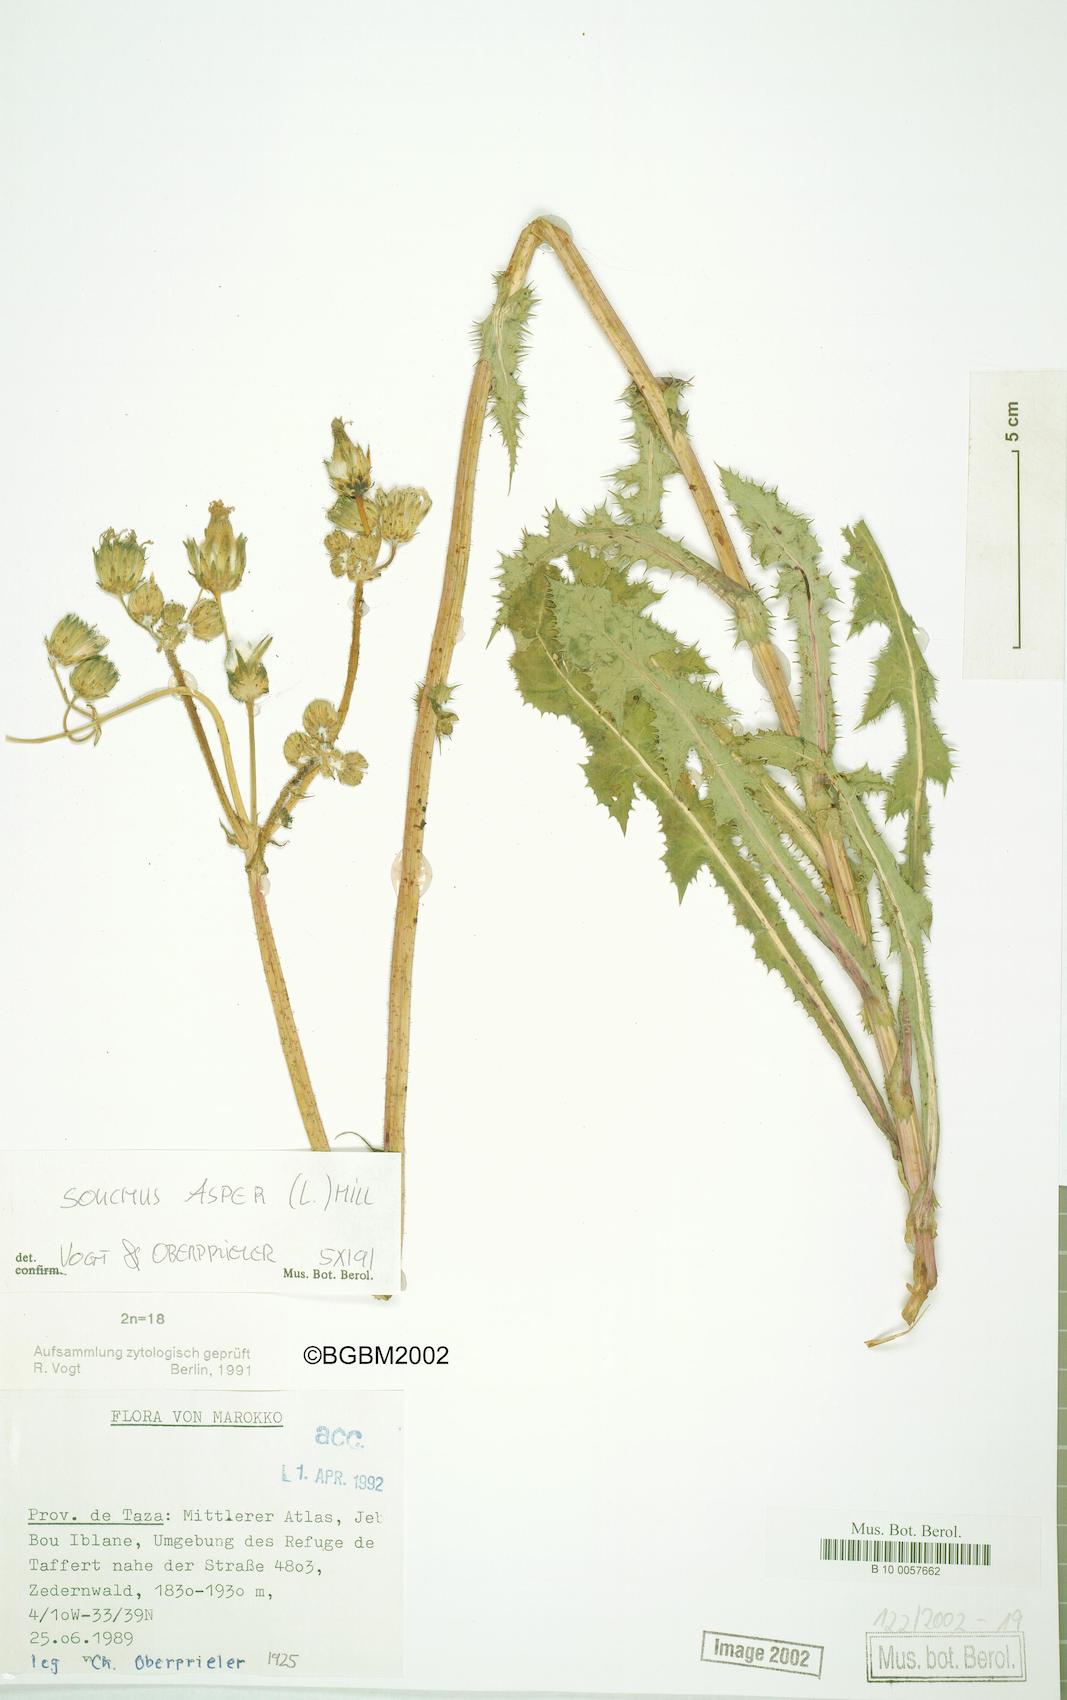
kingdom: Plantae
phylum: Tracheophyta
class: Magnoliopsida
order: Asterales
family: Asteraceae
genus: Sonchus
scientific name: Sonchus asper
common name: Prickly sow-thistle
